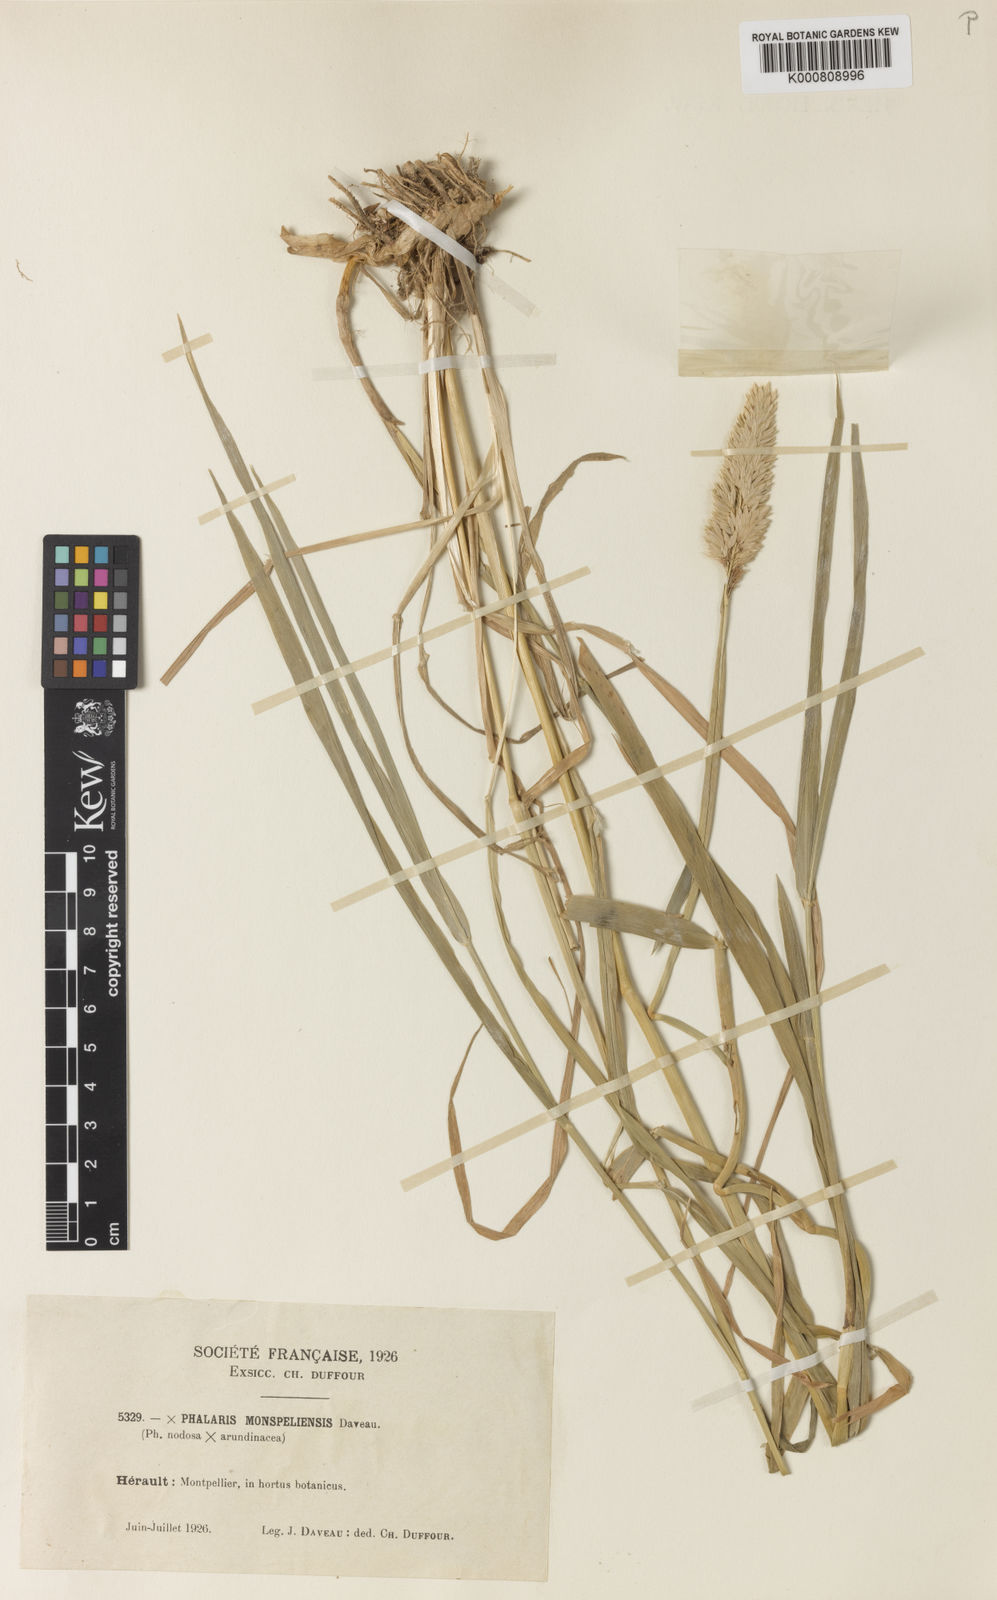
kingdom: Plantae
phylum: Tracheophyta
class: Liliopsida
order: Poales
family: Poaceae
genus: Phalaris
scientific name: Phalaris arundinacea
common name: Reed canary-grass
